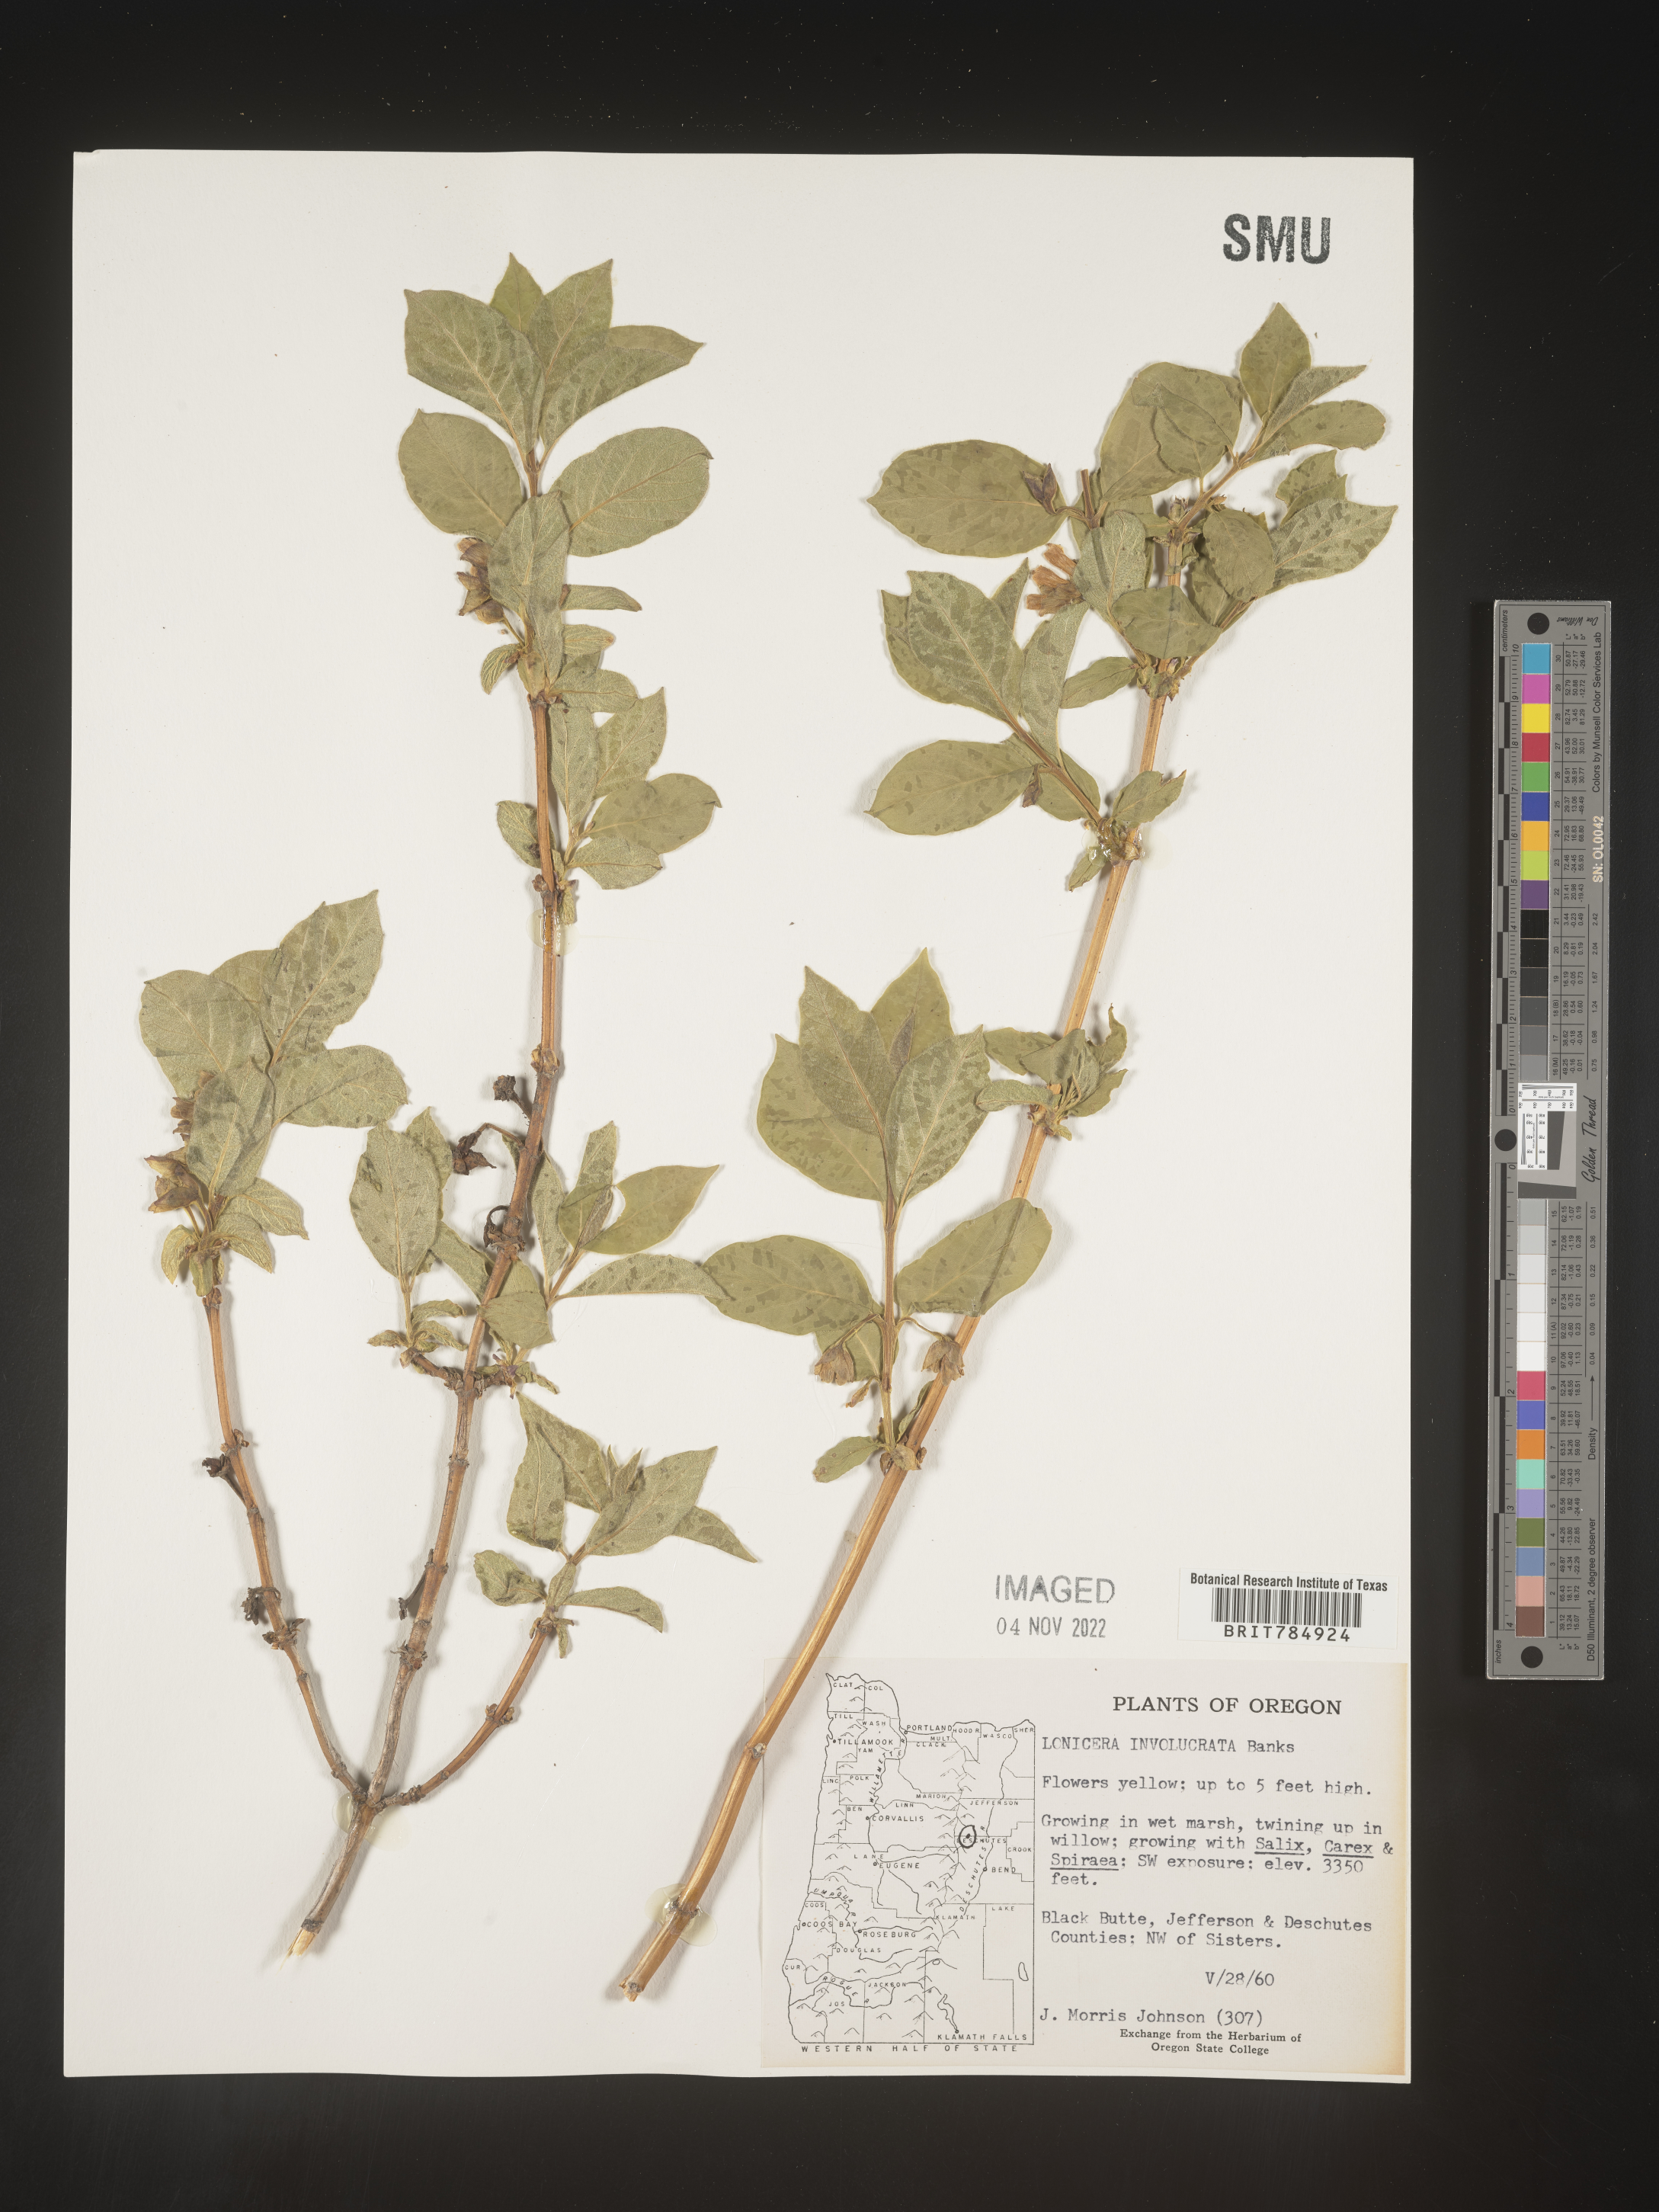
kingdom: Plantae
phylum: Tracheophyta
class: Magnoliopsida
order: Dipsacales
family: Caprifoliaceae
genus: Lonicera
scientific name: Lonicera involucrata
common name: Californian honeysuckle
